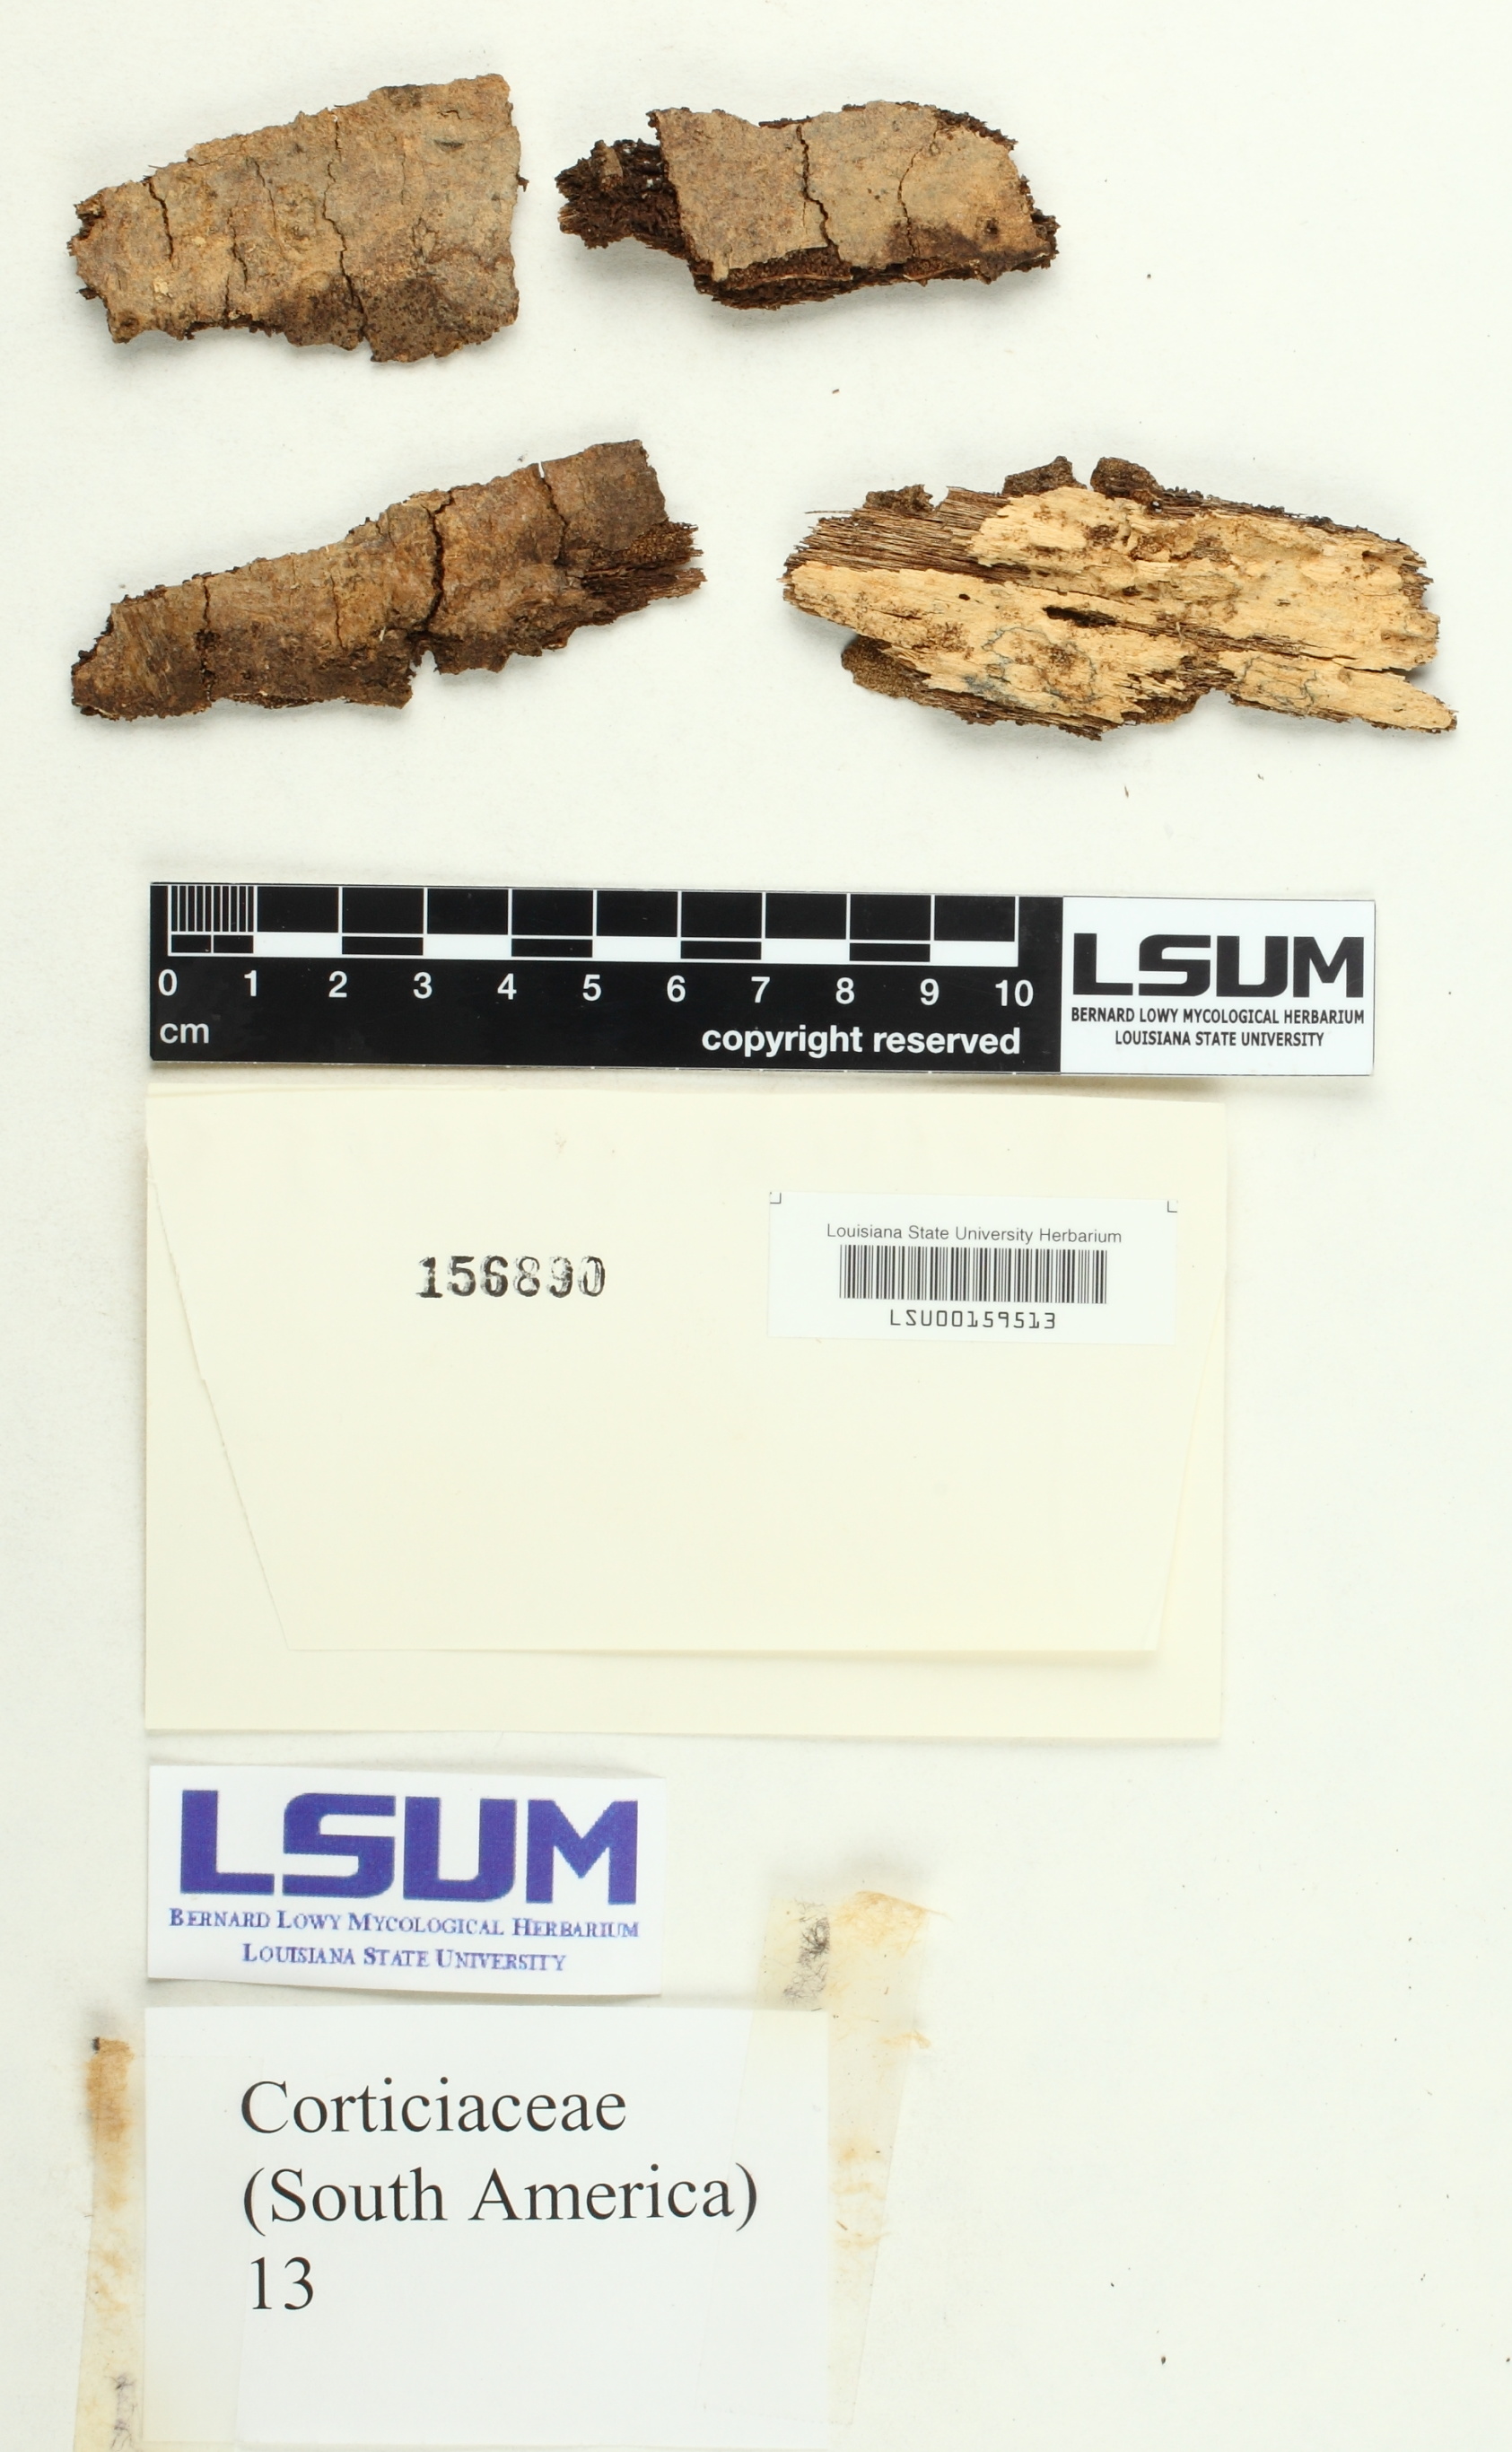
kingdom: Fungi
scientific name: Fungi
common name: Fungi
